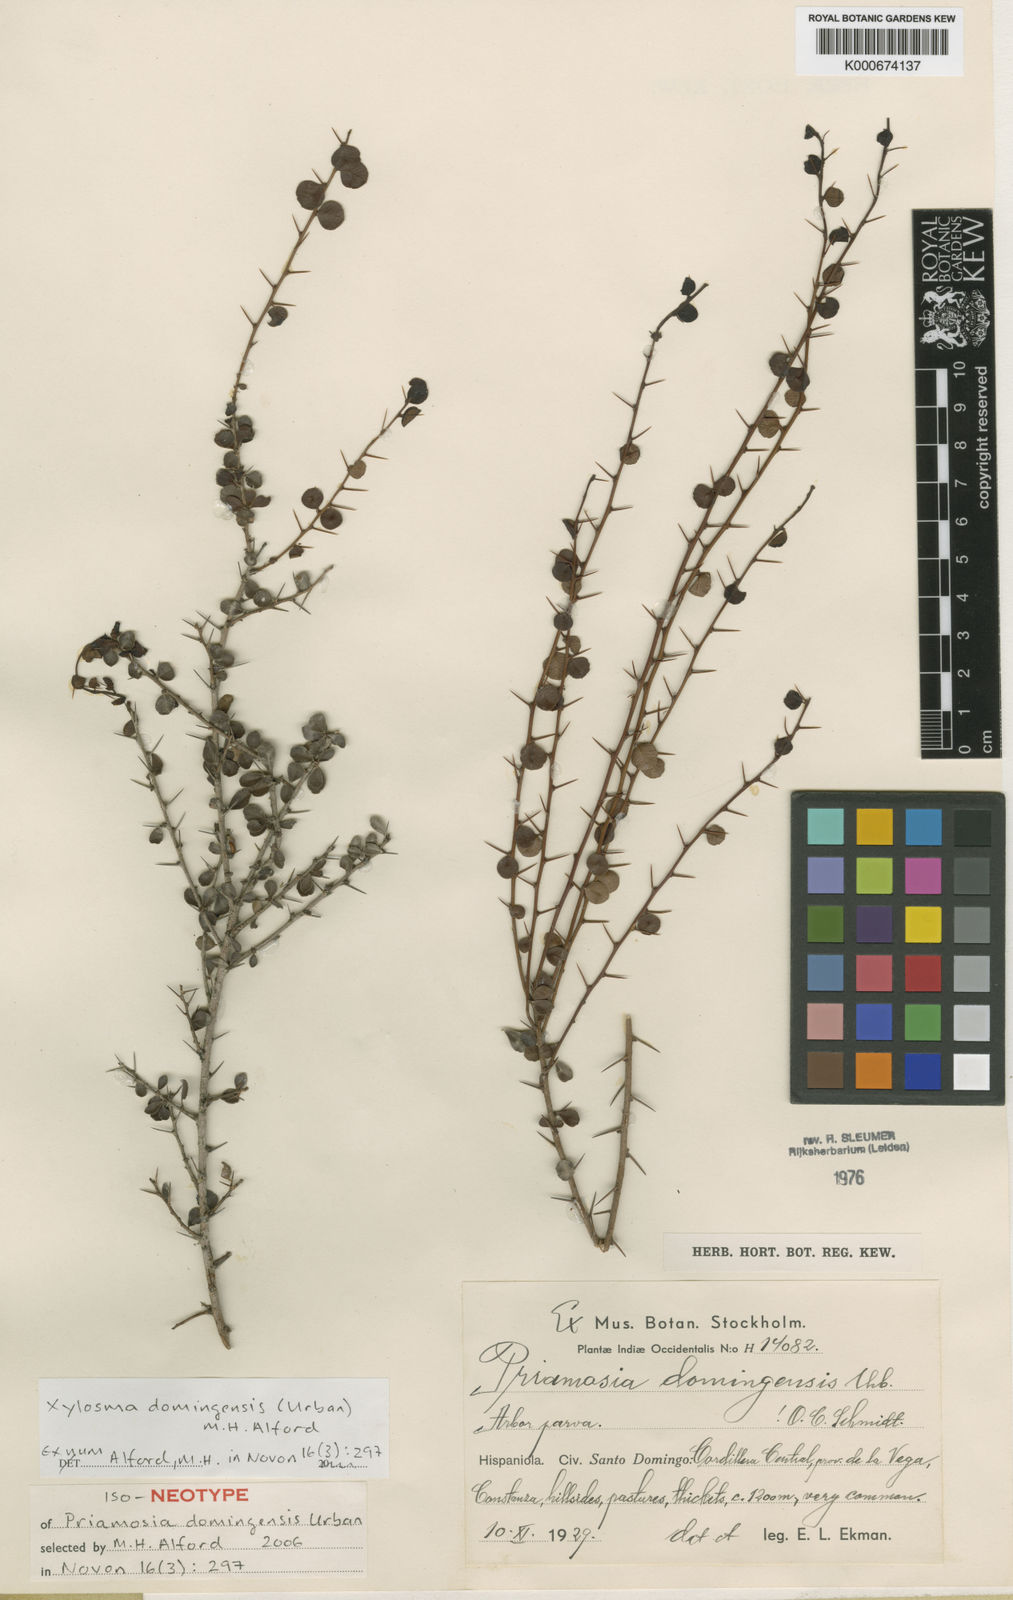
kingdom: Plantae
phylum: Tracheophyta
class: Magnoliopsida
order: Malpighiales
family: Salicaceae
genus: Xylosma
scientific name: Xylosma domingensis
